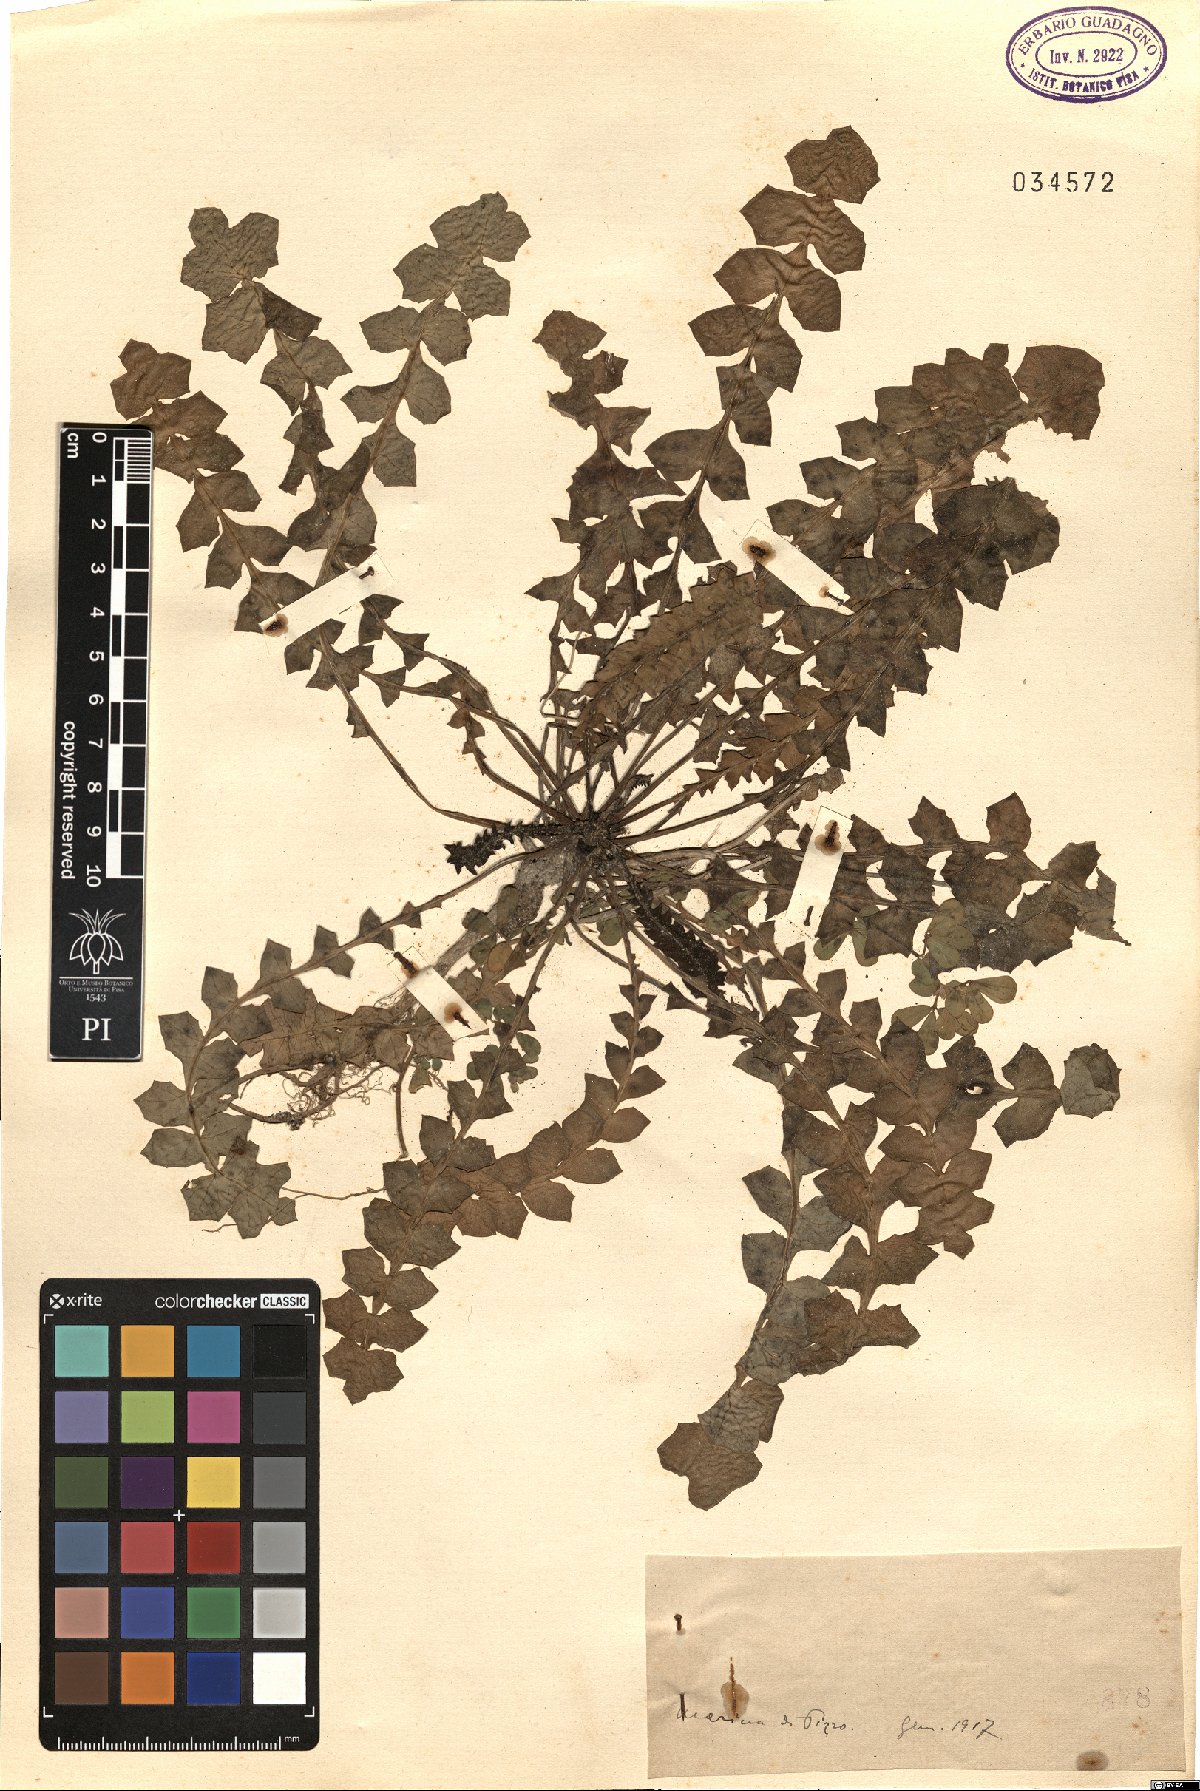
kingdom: Plantae
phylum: Tracheophyta
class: Magnoliopsida
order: Asterales
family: Asteraceae
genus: Hyoseris
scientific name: Hyoseris
